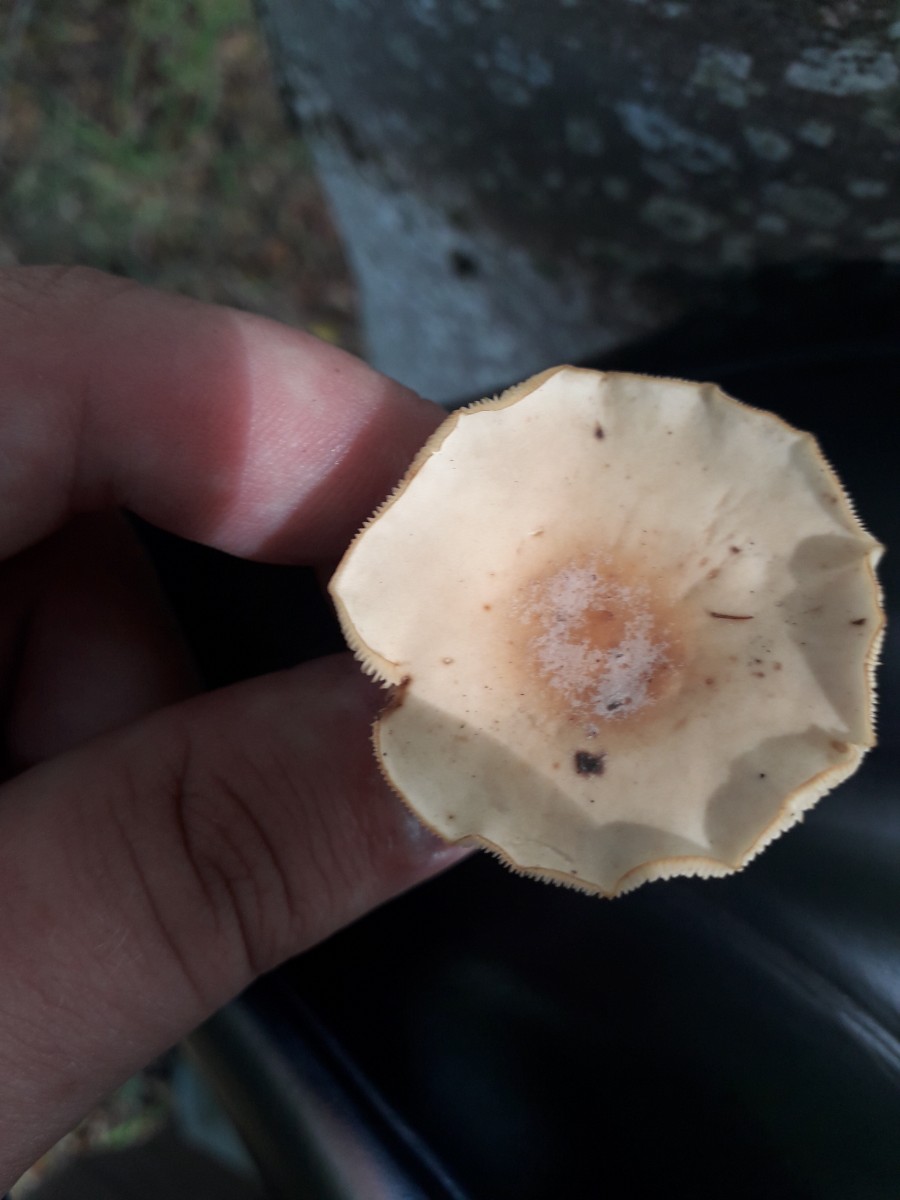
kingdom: Fungi
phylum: Basidiomycota
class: Agaricomycetes
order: Agaricales
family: Omphalotaceae
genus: Gymnopus
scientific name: Gymnopus
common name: fladhat
